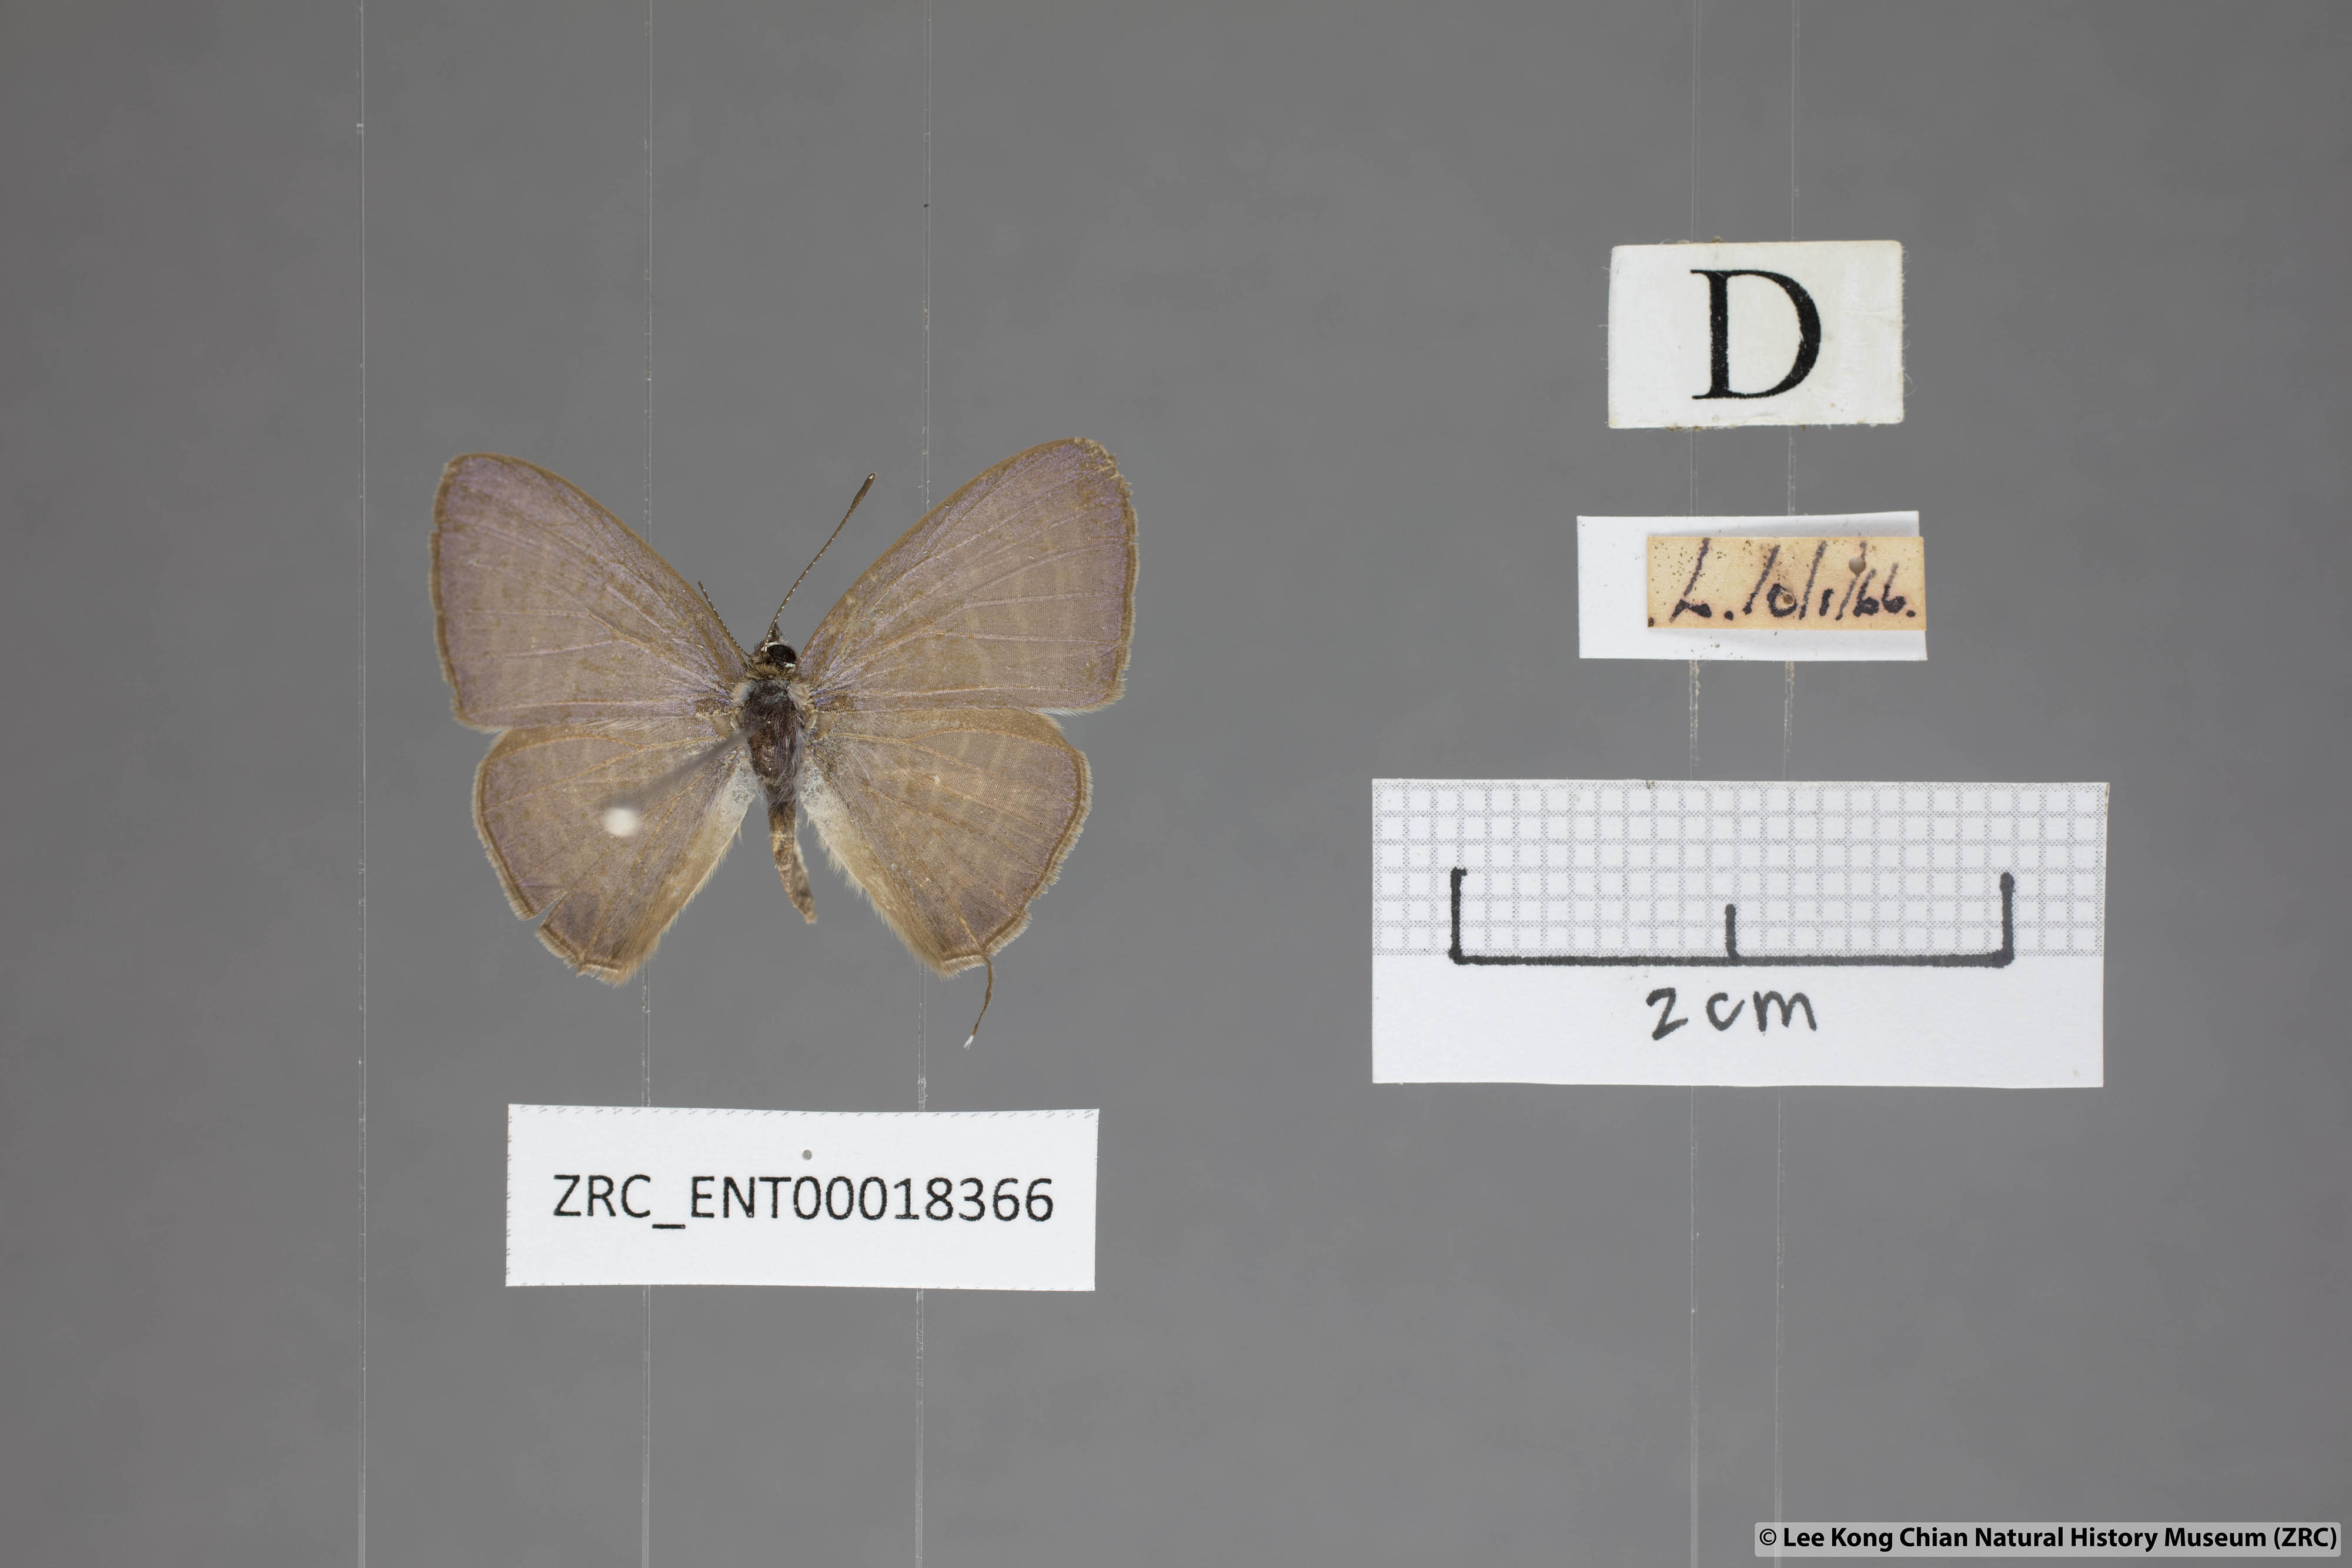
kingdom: Animalia
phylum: Arthropoda
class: Insecta
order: Lepidoptera
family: Lycaenidae
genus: Nacaduba
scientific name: Nacaduba kurava
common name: Transparent 6-line blue
